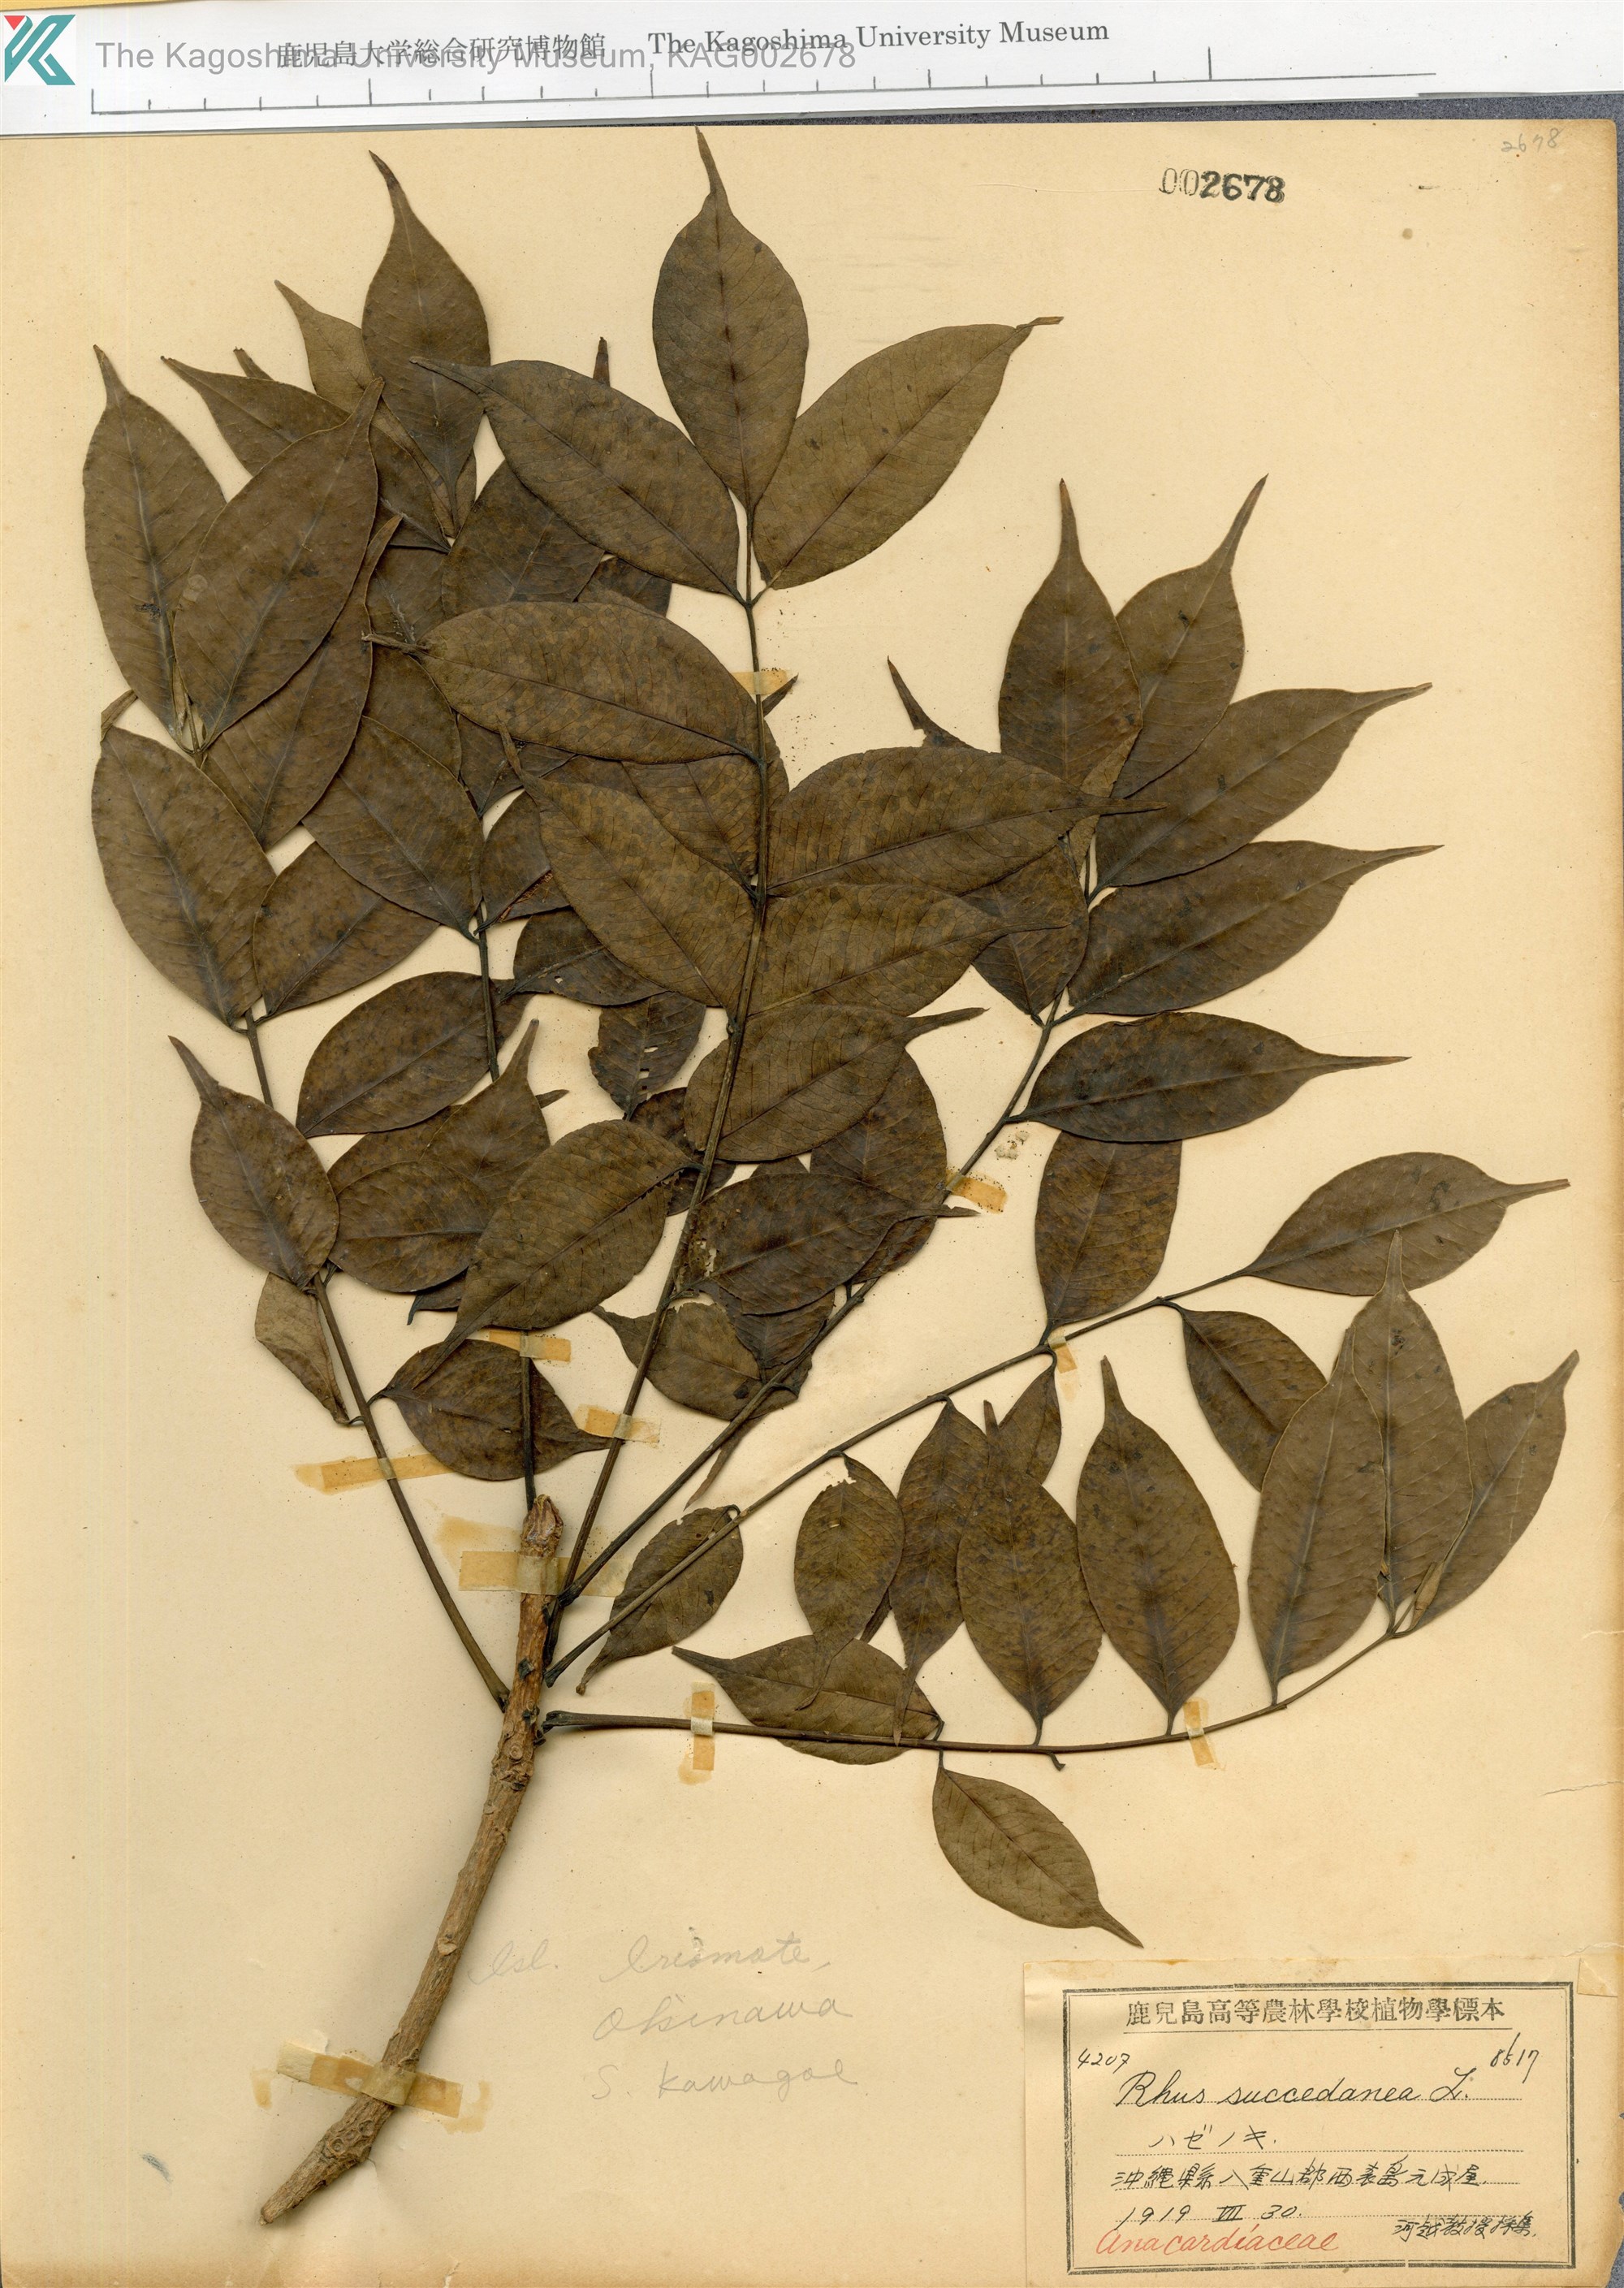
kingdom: Plantae
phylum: Tracheophyta
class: Magnoliopsida
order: Sapindales
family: Anacardiaceae
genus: Toxicodendron
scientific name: Toxicodendron succedaneum
